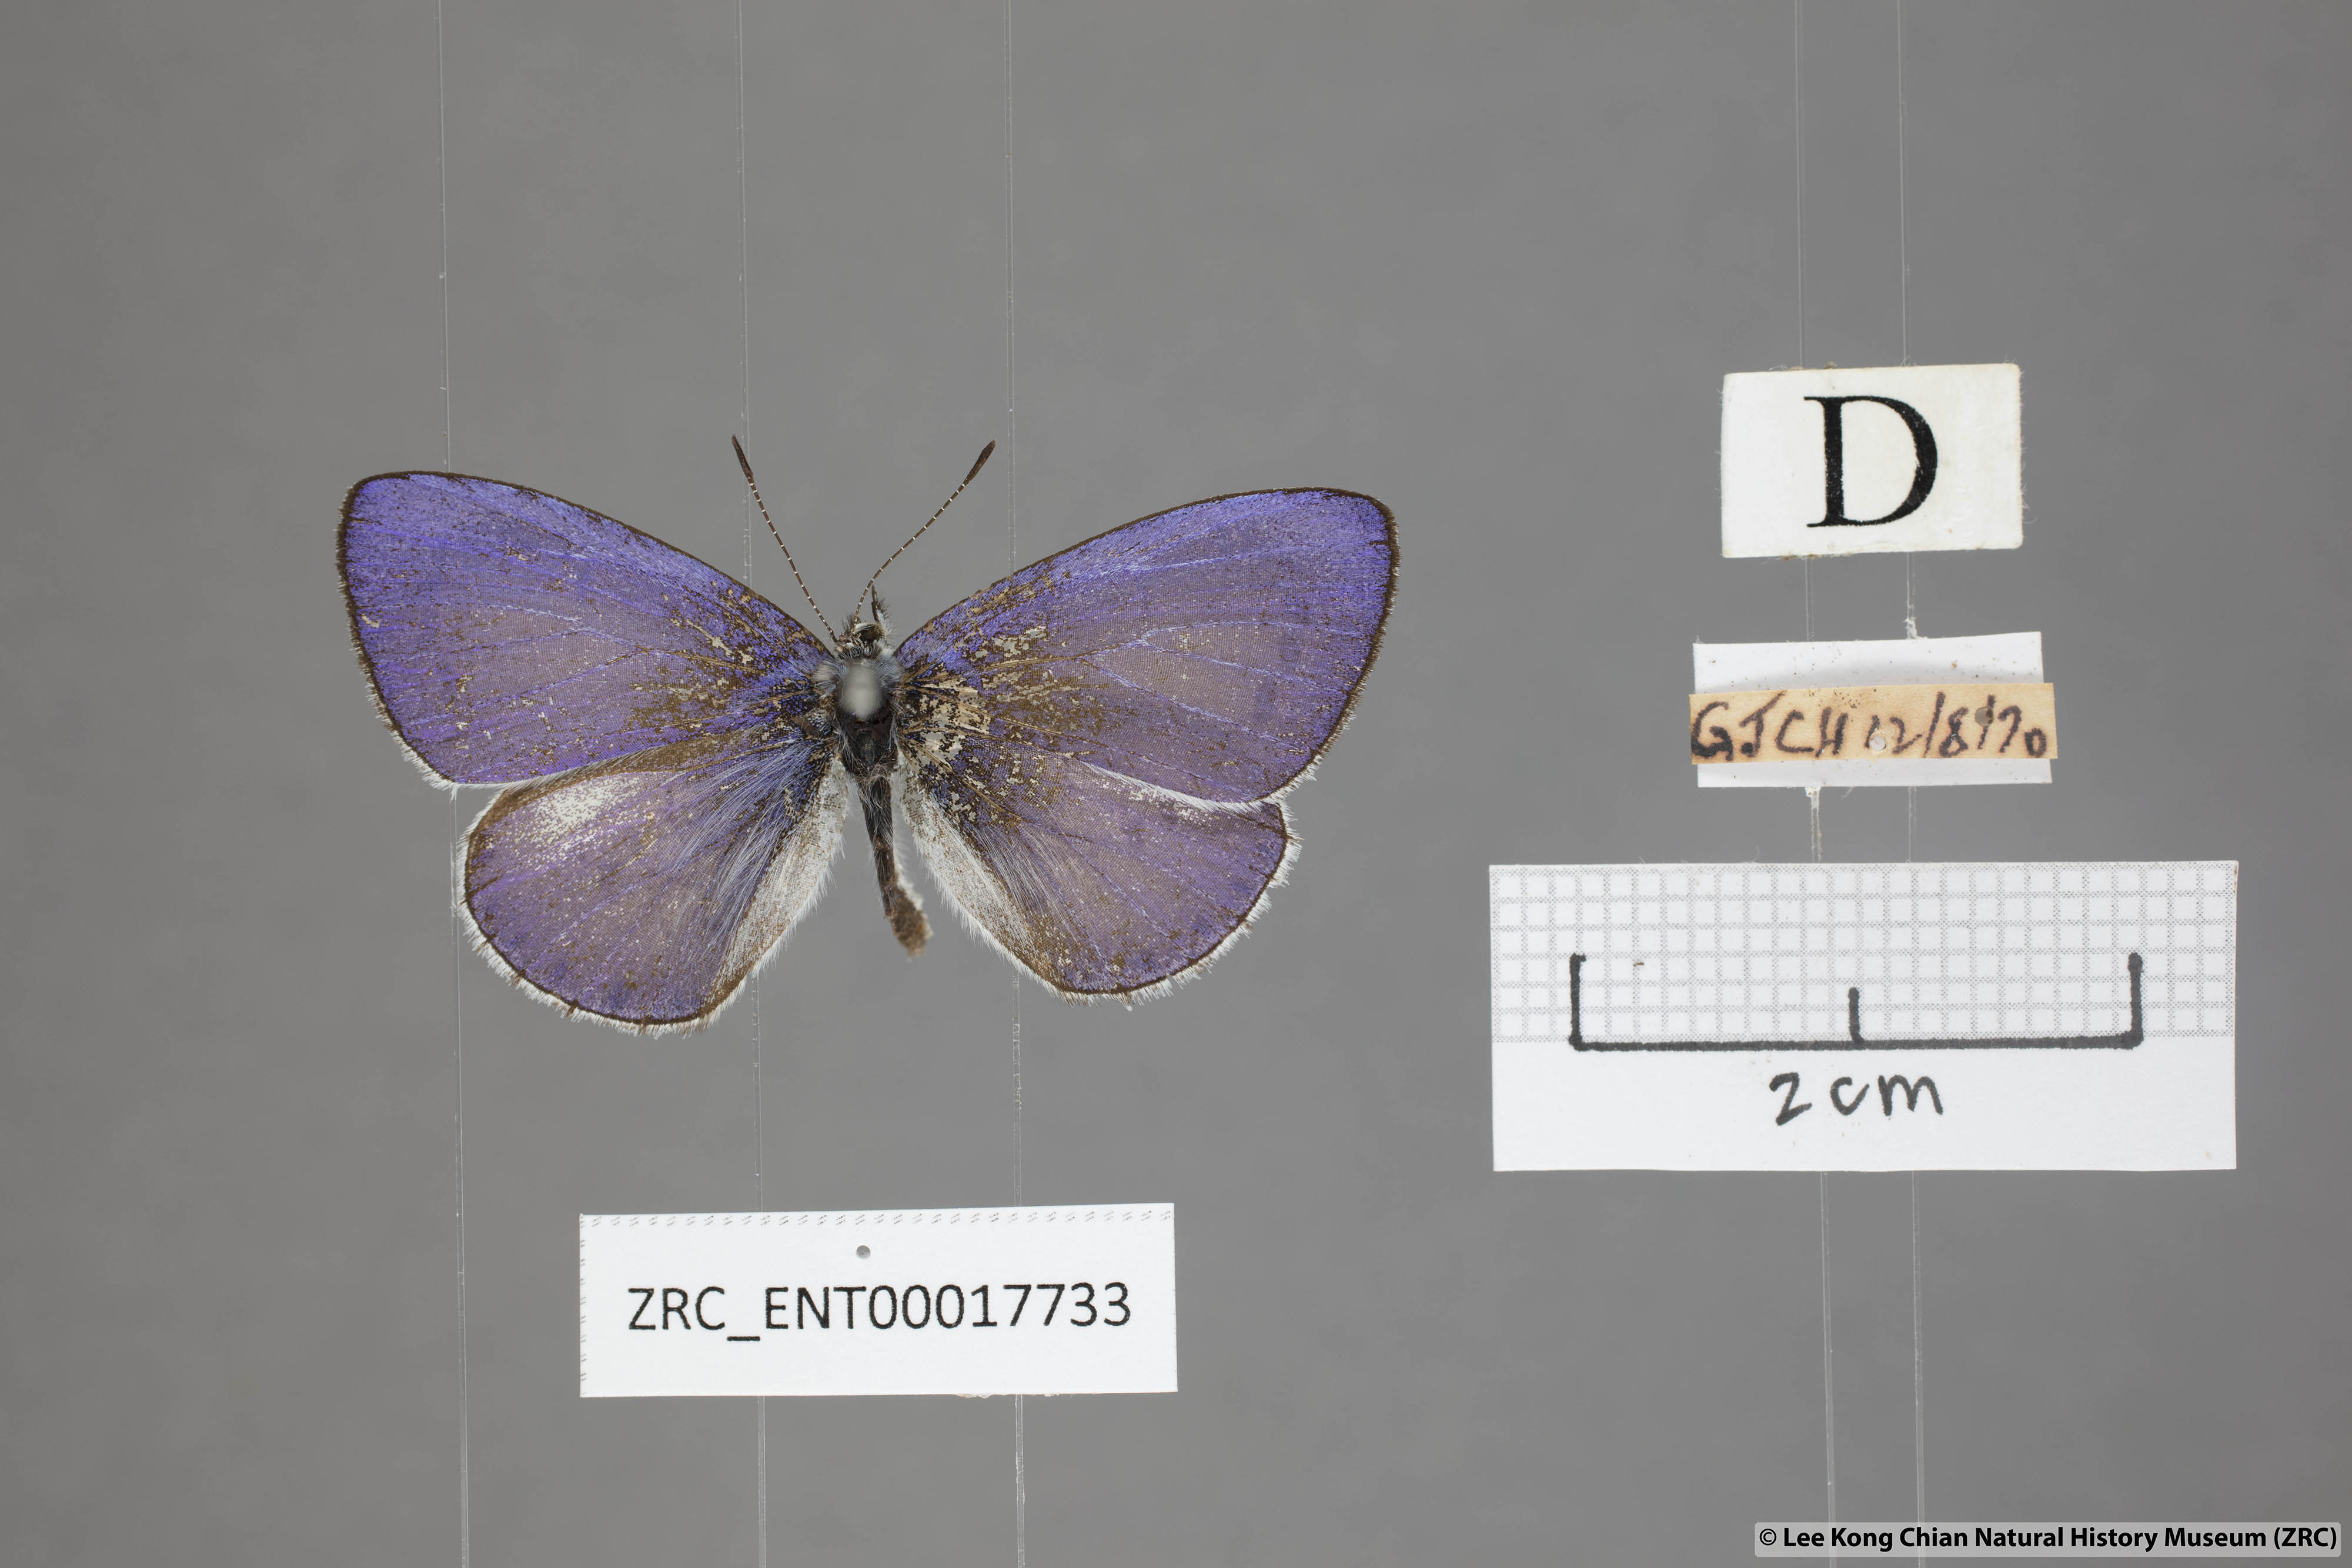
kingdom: Animalia
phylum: Arthropoda
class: Insecta
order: Lepidoptera
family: Lycaenidae
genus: Udara
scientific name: Udara
